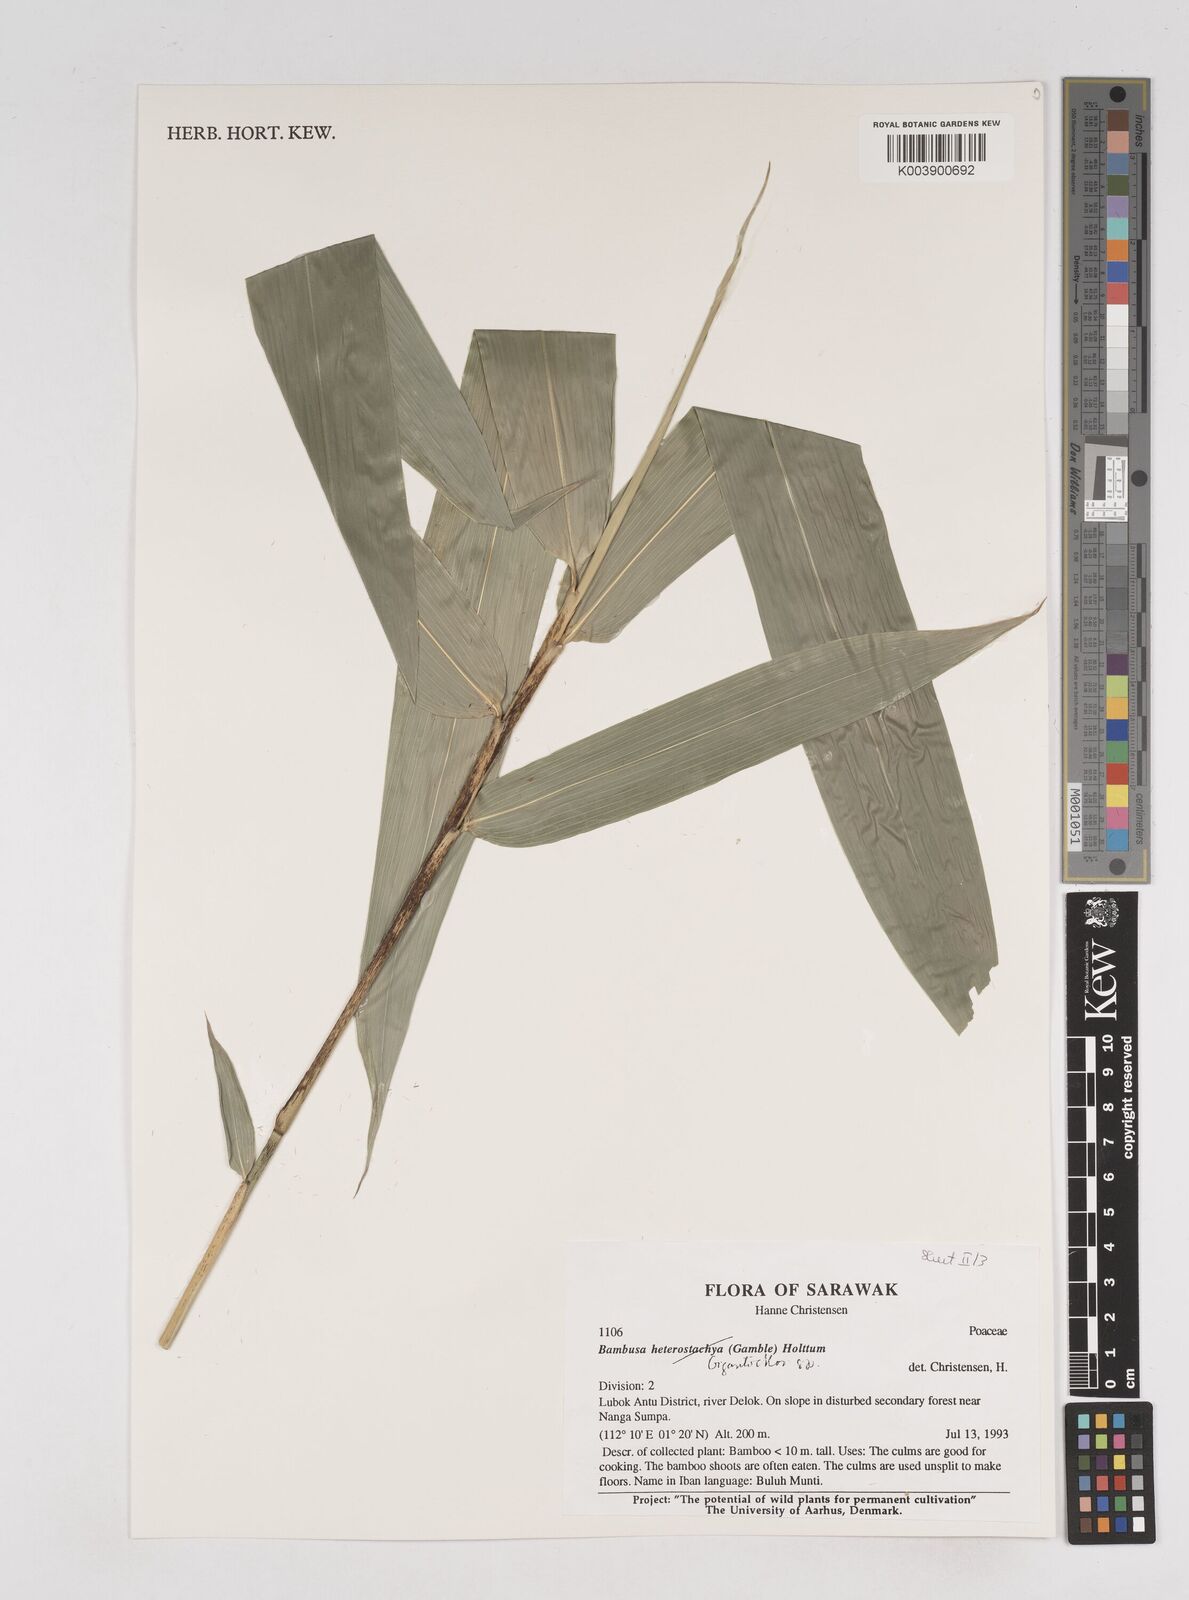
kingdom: Plantae
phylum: Tracheophyta
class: Liliopsida
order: Poales
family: Poaceae
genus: Gigantochloa
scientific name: Gigantochloa
